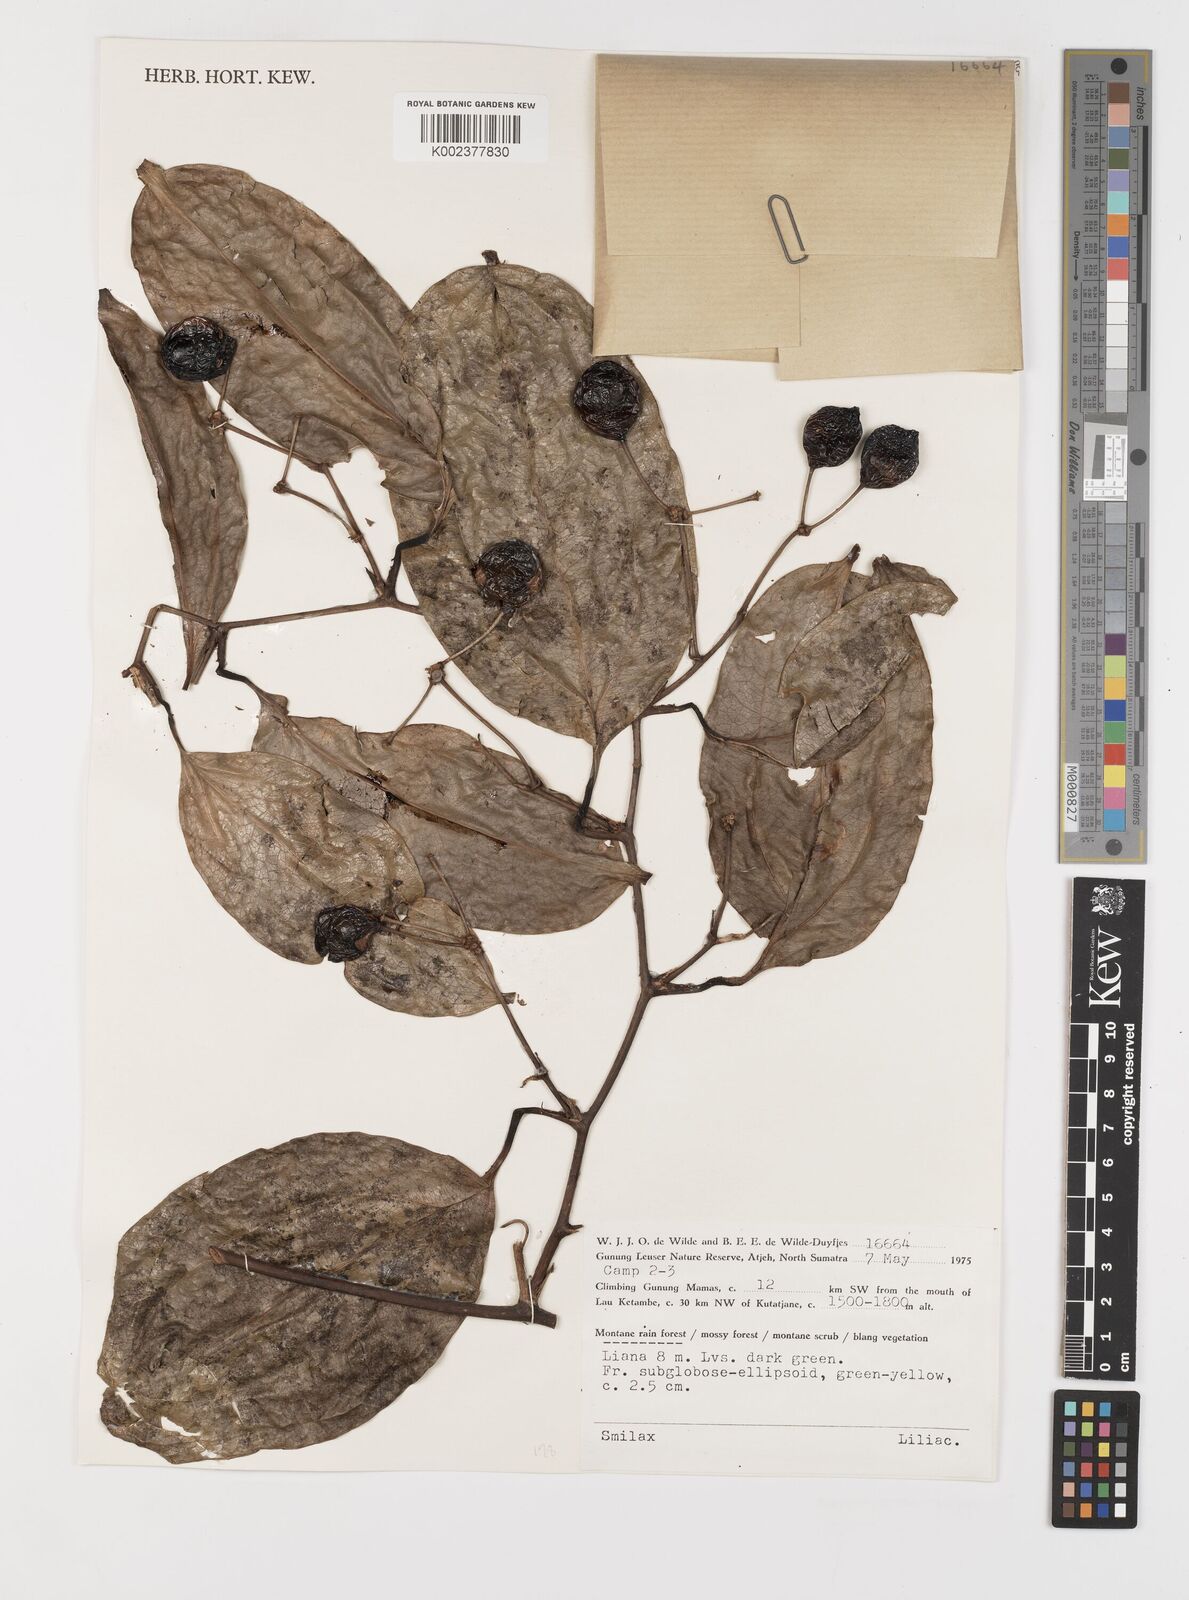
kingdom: Plantae
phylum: Tracheophyta
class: Liliopsida
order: Liliales
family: Smilacaceae
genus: Smilax
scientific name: Smilax
